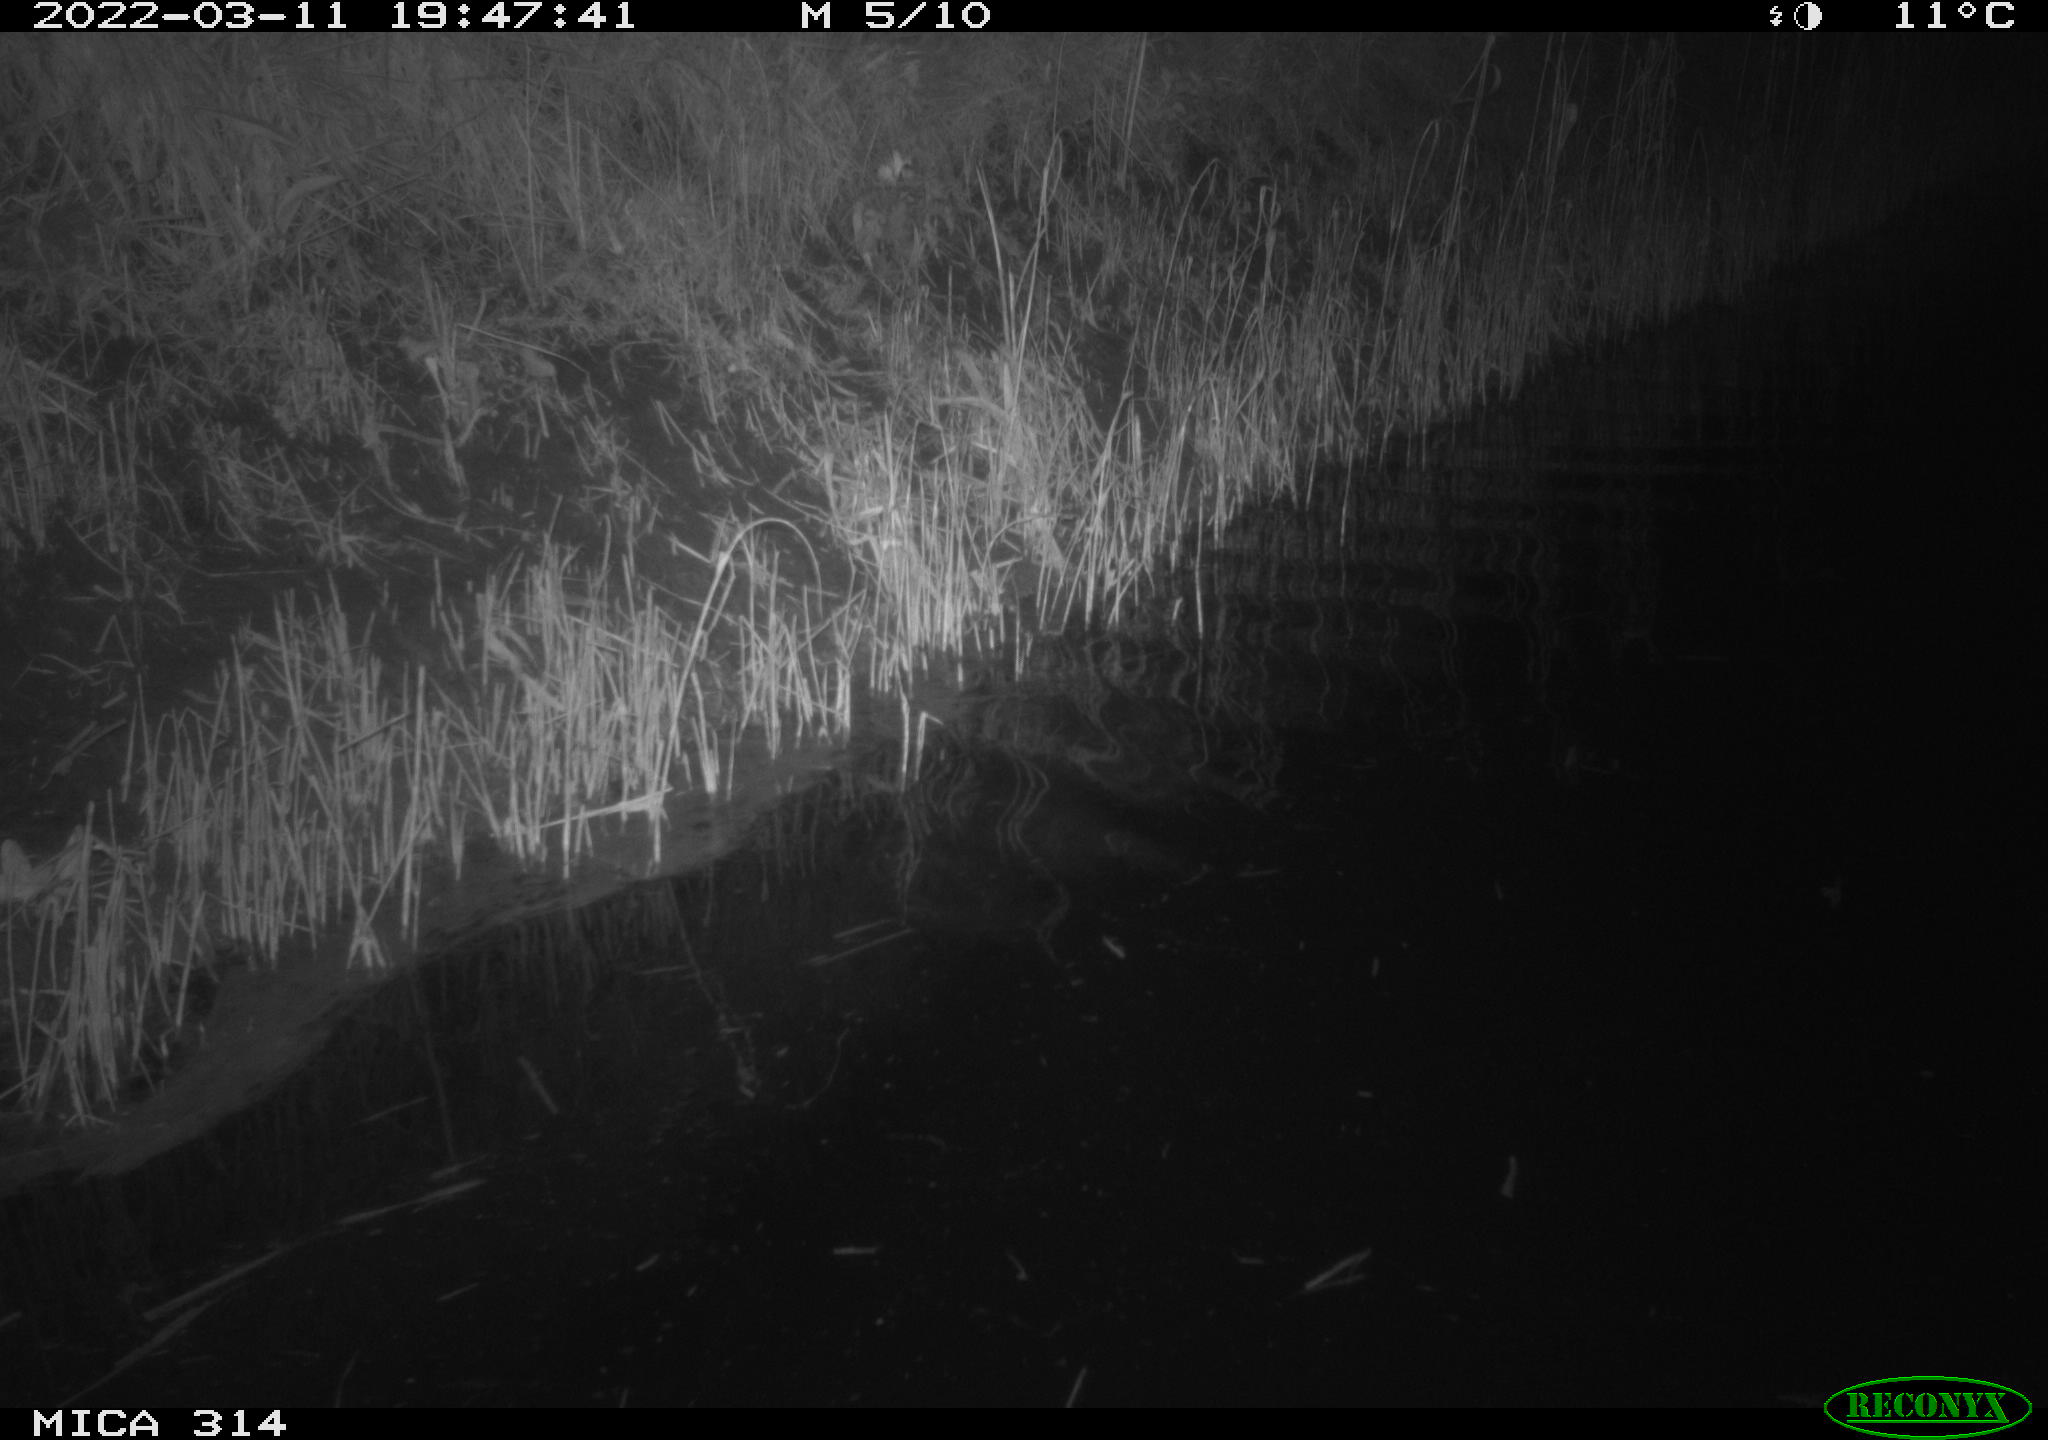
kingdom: Animalia
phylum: Chordata
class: Aves
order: Anseriformes
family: Anatidae
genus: Anas
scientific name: Anas platyrhynchos
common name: Mallard
